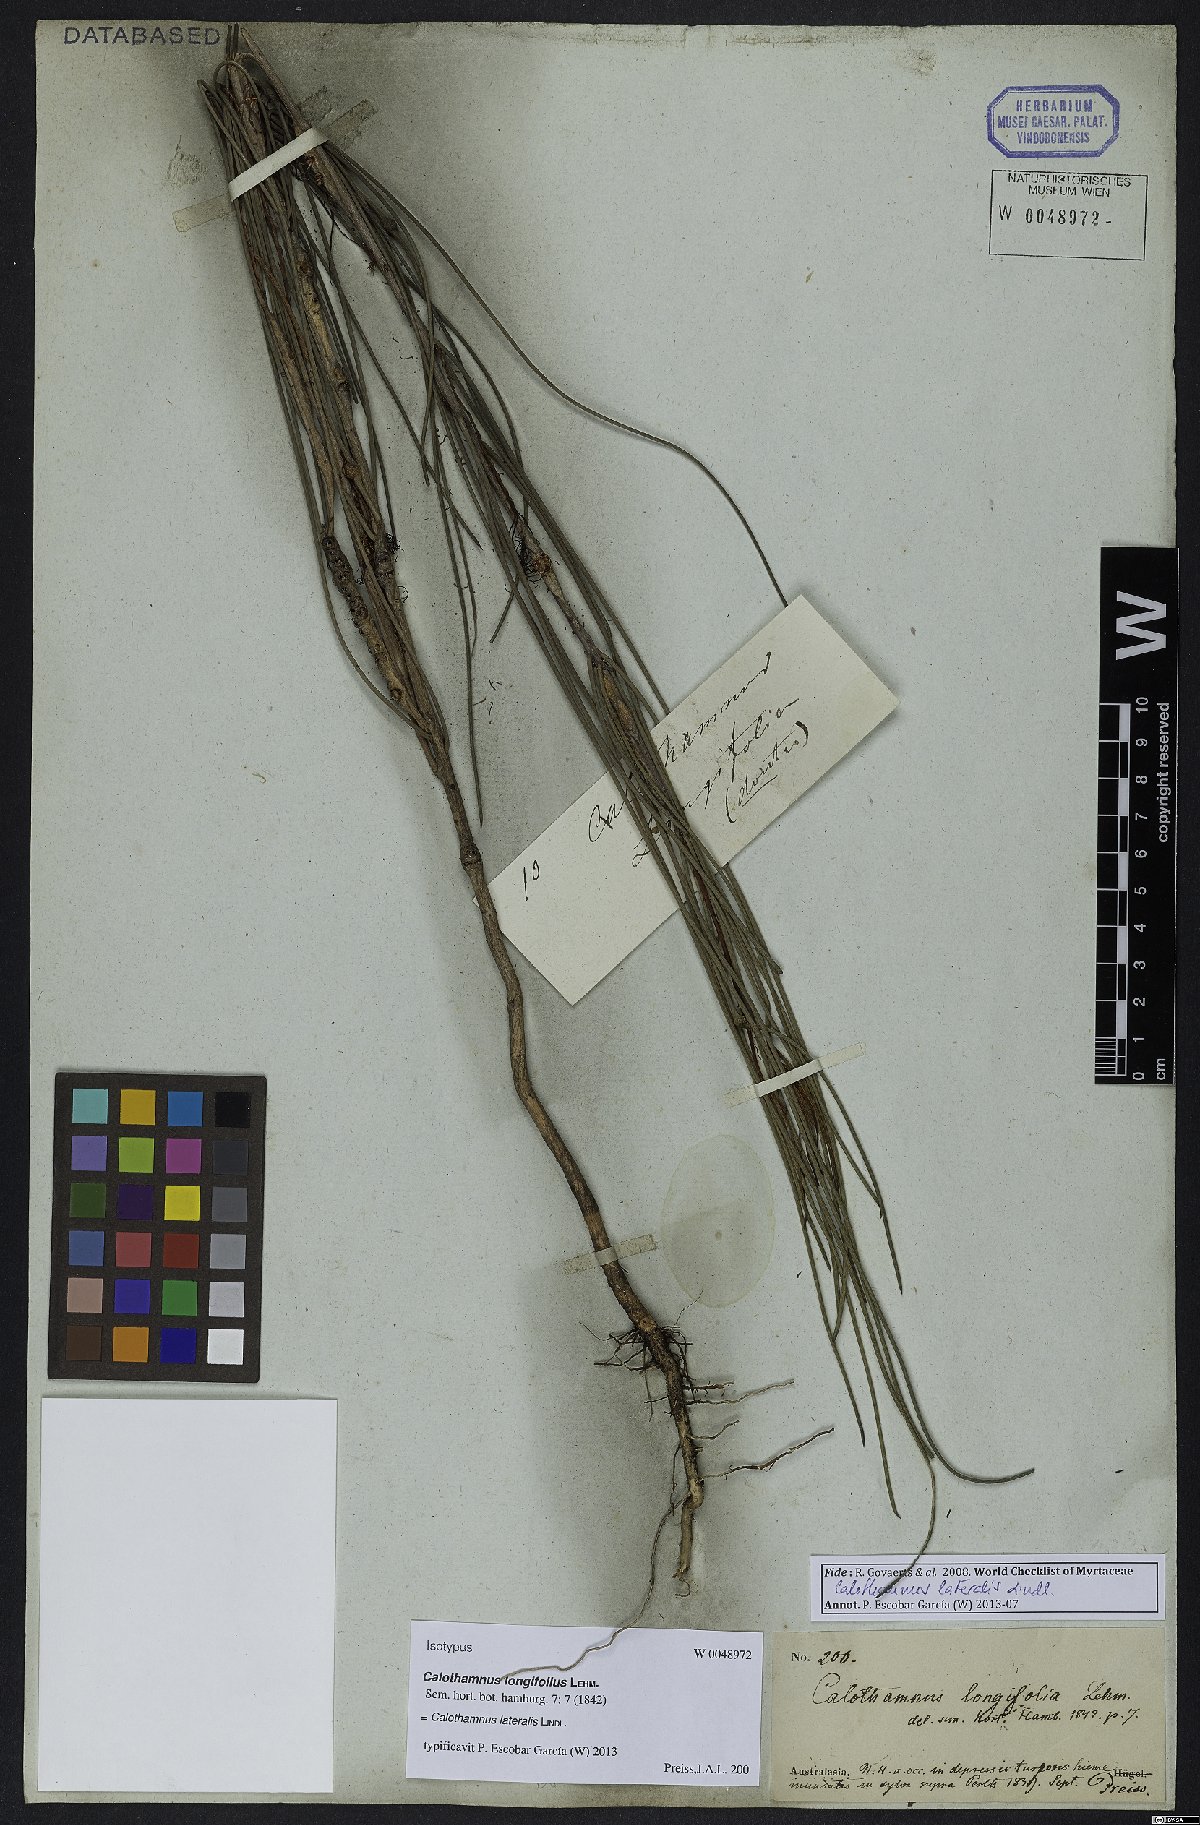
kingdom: Plantae
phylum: Tracheophyta
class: Magnoliopsida
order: Myrtales
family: Myrtaceae
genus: Melaleuca
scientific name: Melaleuca lateralis
